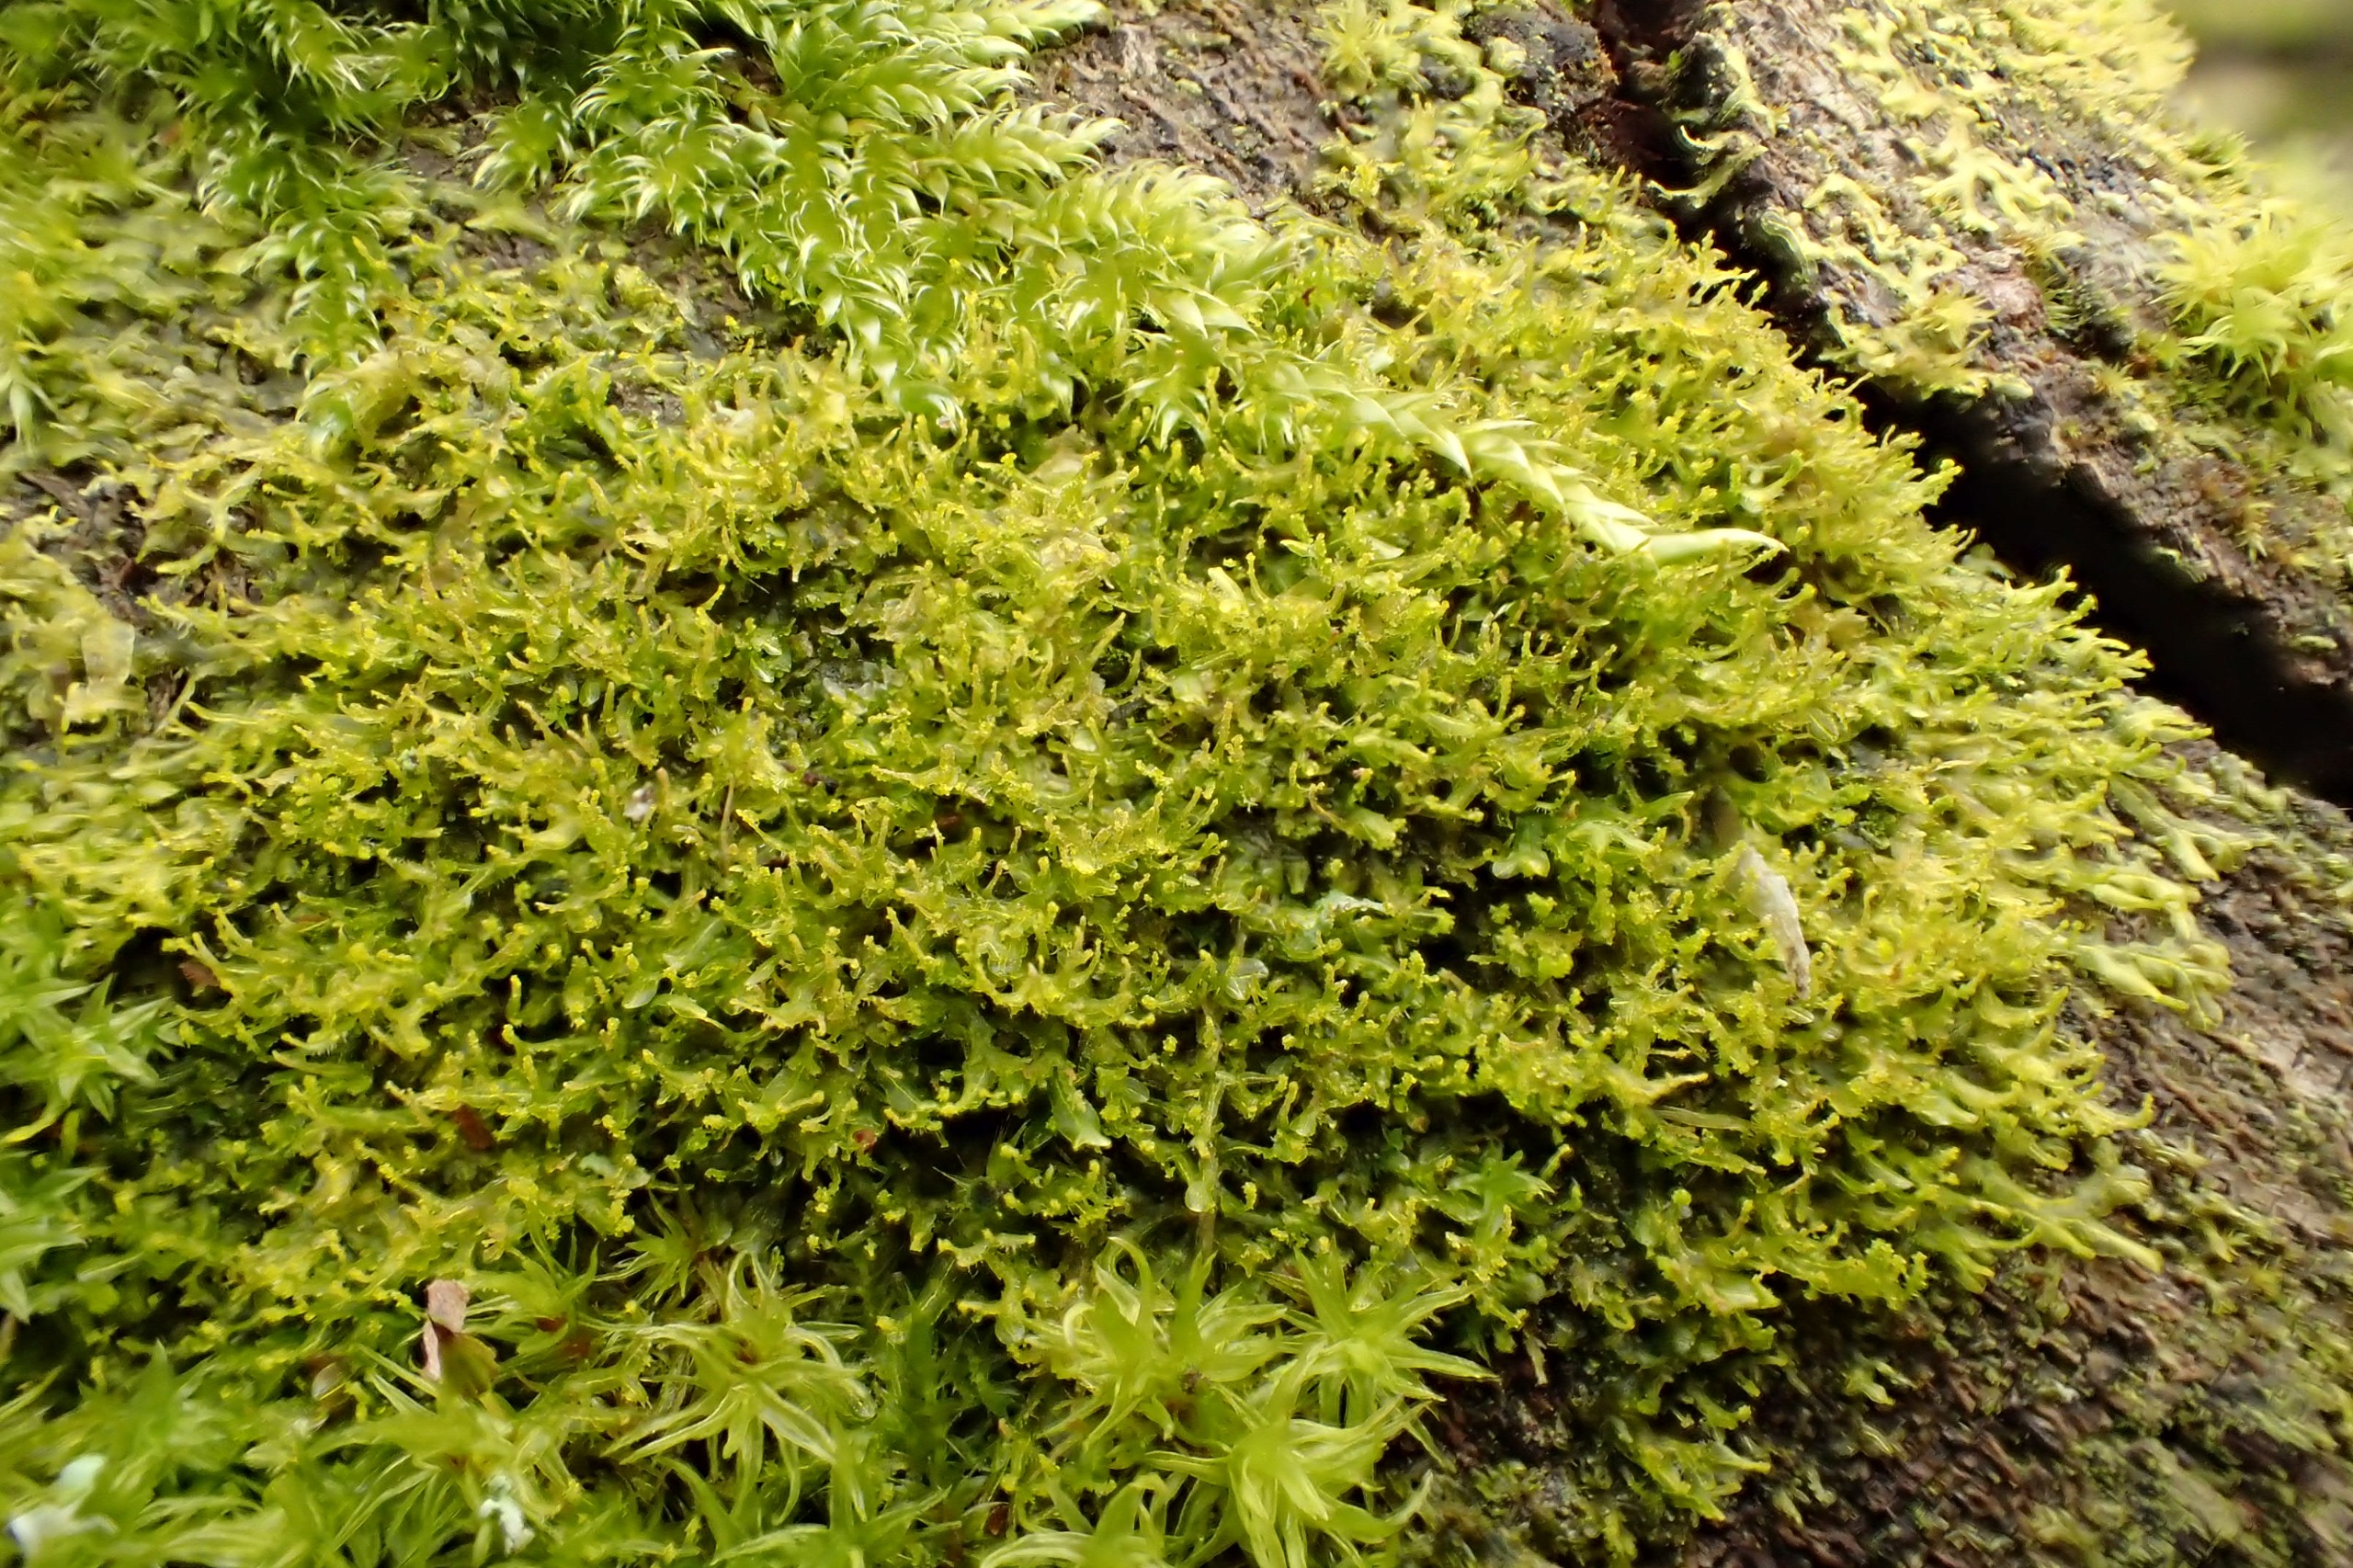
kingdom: Plantae
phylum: Marchantiophyta
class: Jungermanniopsida
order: Metzgeriales
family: Aneuraceae
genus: Riccardia
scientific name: Riccardia palmata
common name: Blågrøn gaffelløv
